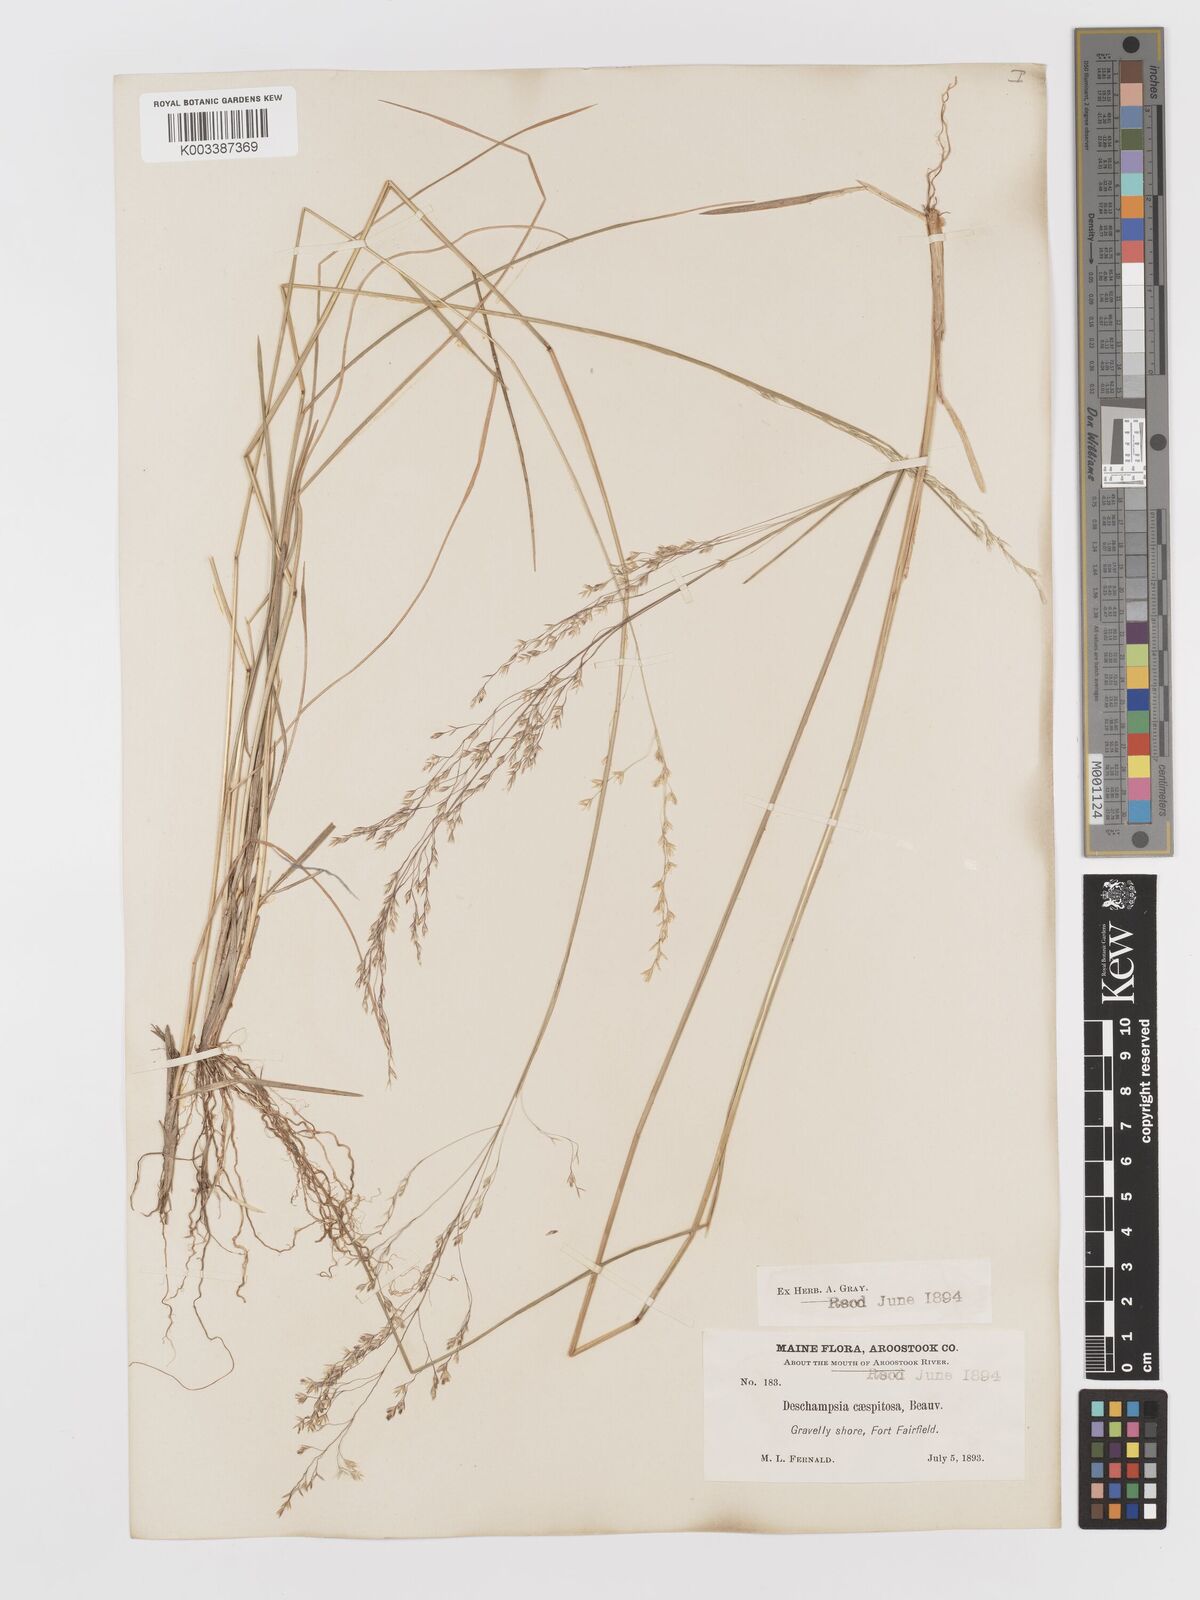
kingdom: Plantae
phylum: Tracheophyta
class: Liliopsida
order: Poales
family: Poaceae
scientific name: Poaceae
